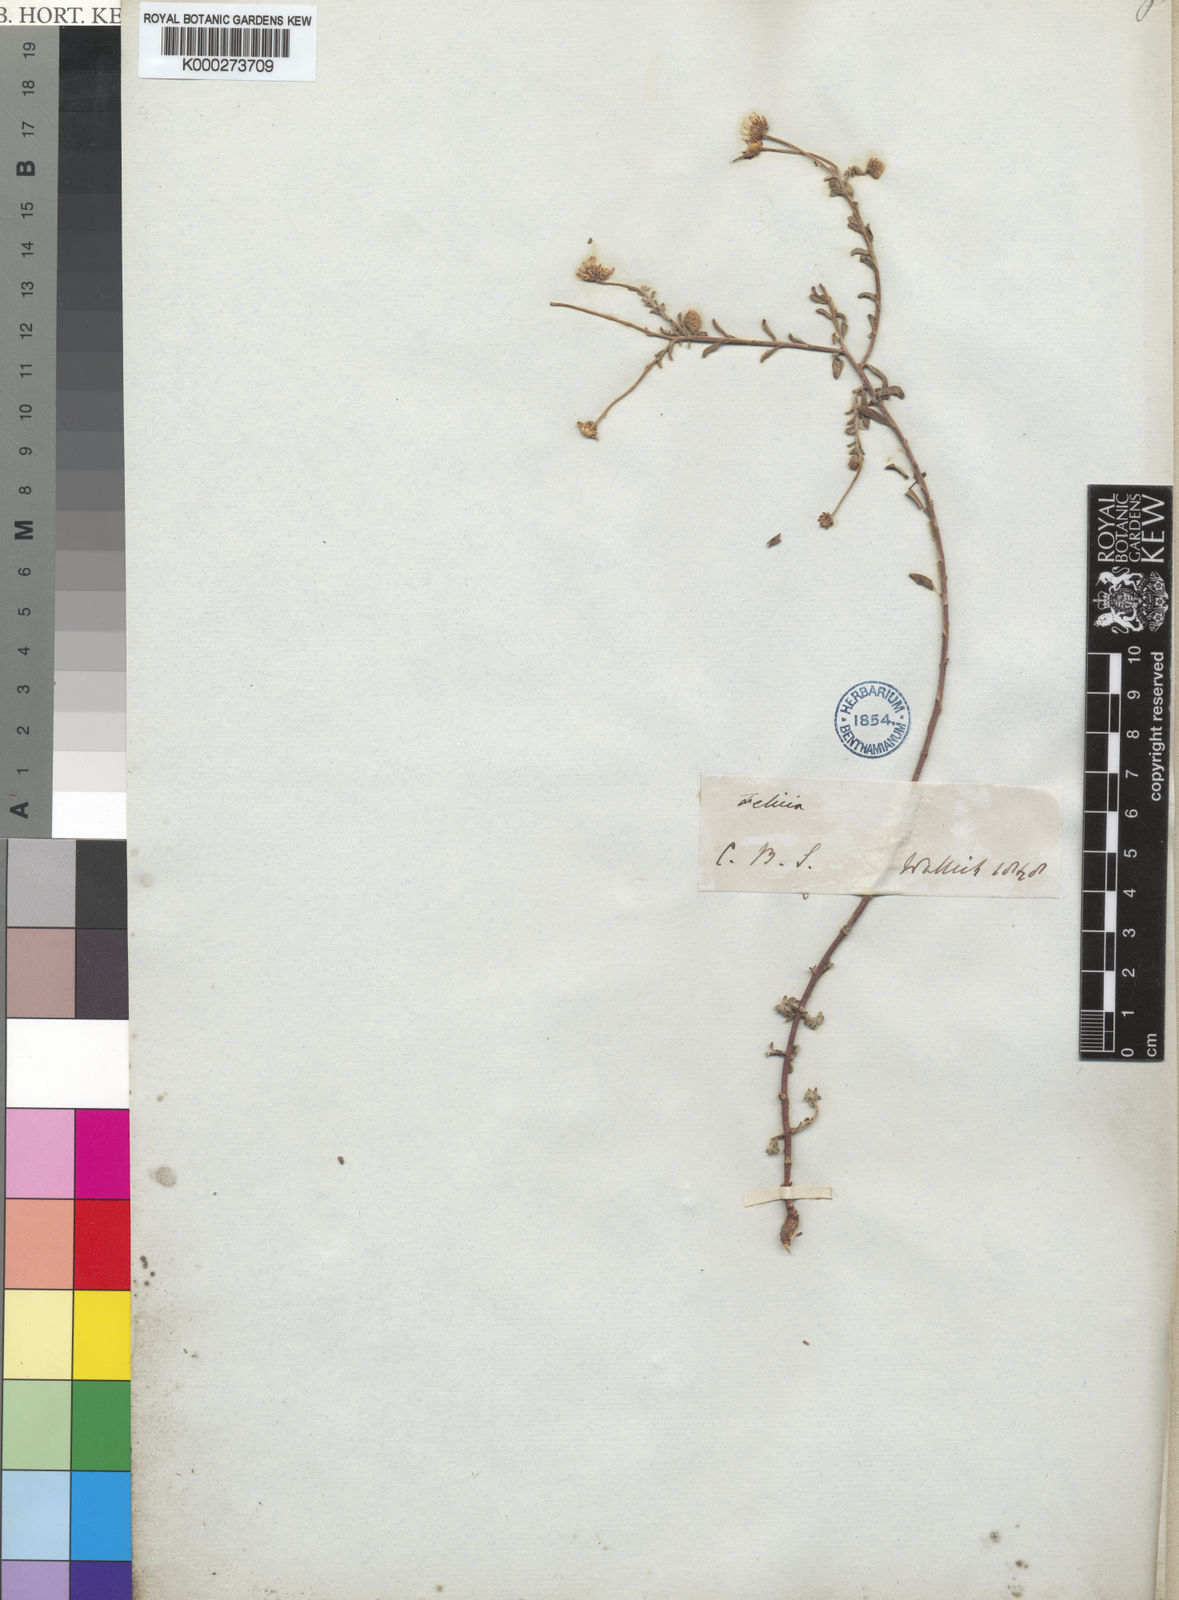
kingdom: Plantae
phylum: Tracheophyta
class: Magnoliopsida
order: Asterales
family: Asteraceae
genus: Felicia
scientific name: Felicia hyssopifolia
